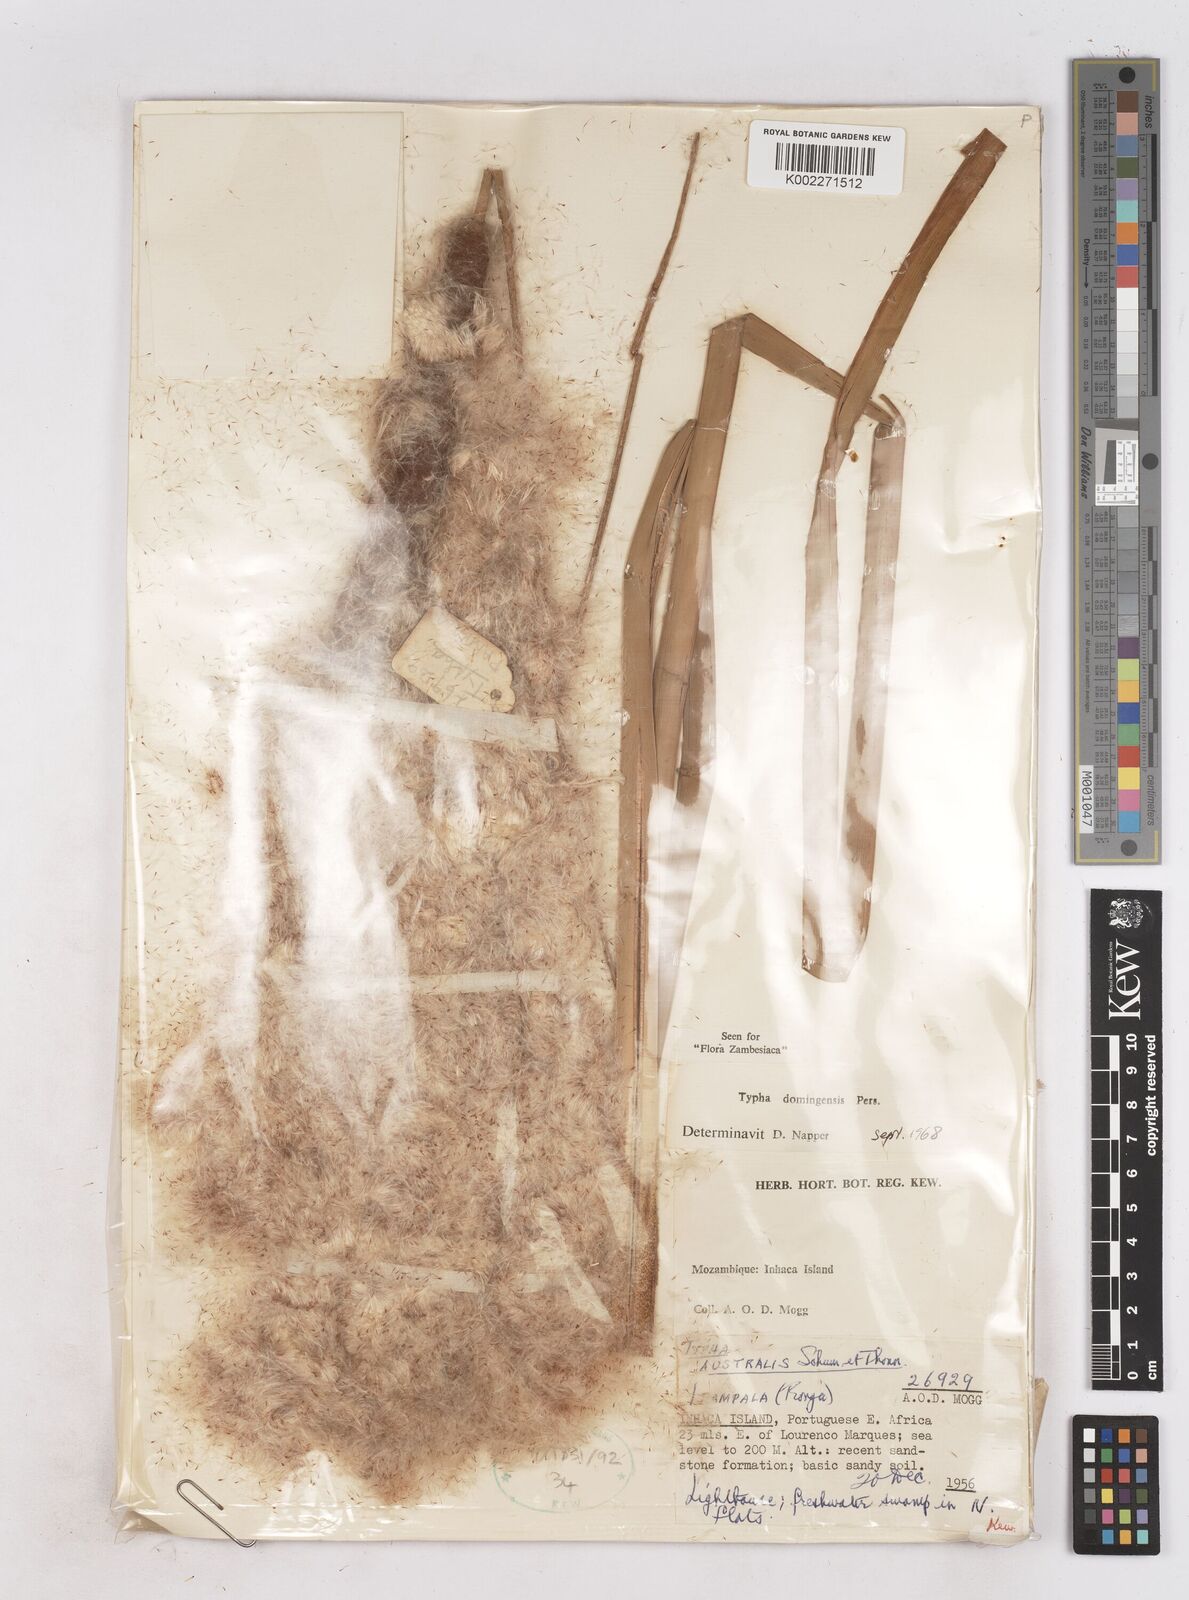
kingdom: Plantae
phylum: Tracheophyta
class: Liliopsida
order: Poales
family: Typhaceae
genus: Typha
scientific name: Typha domingensis
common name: Southern cattail
